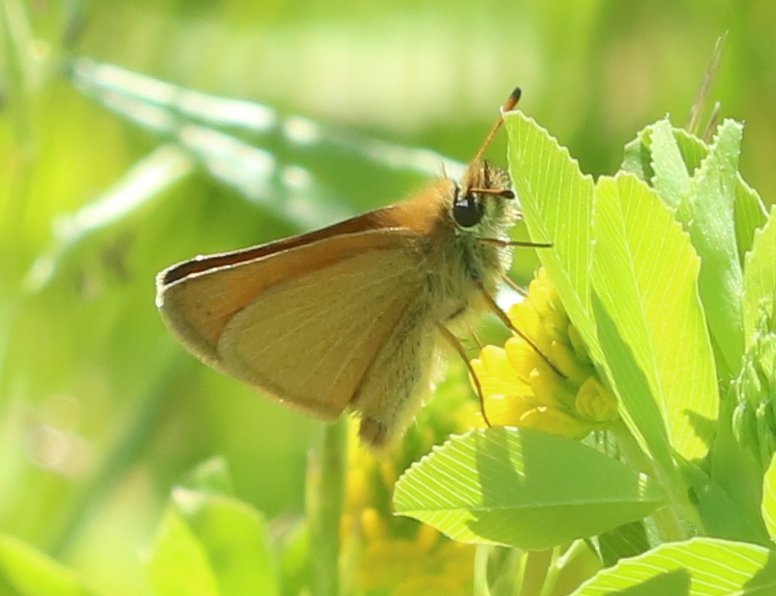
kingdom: Animalia
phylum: Arthropoda
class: Insecta
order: Lepidoptera
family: Hesperiidae
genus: Thymelicus
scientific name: Thymelicus lineola
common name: European Skipper
